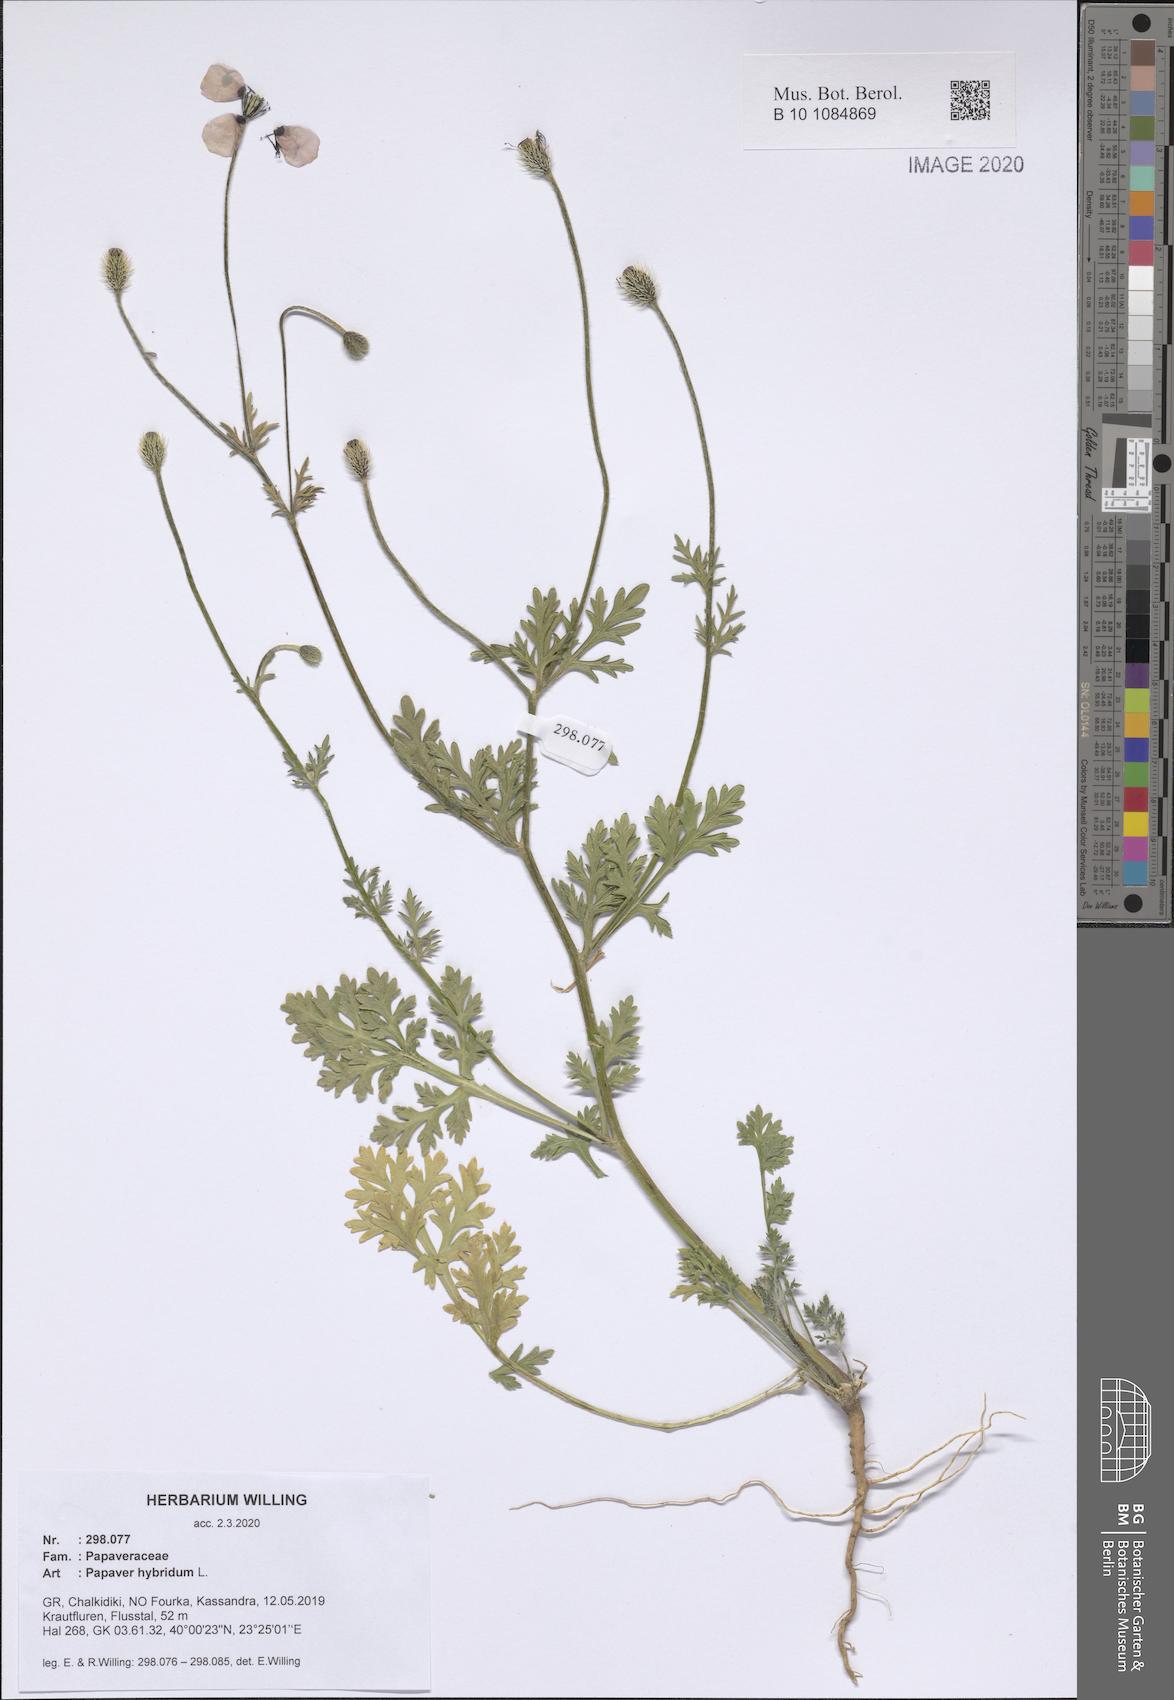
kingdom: Plantae
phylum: Tracheophyta
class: Magnoliopsida
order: Ranunculales
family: Papaveraceae
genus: Roemeria
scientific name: Roemeria hispida
